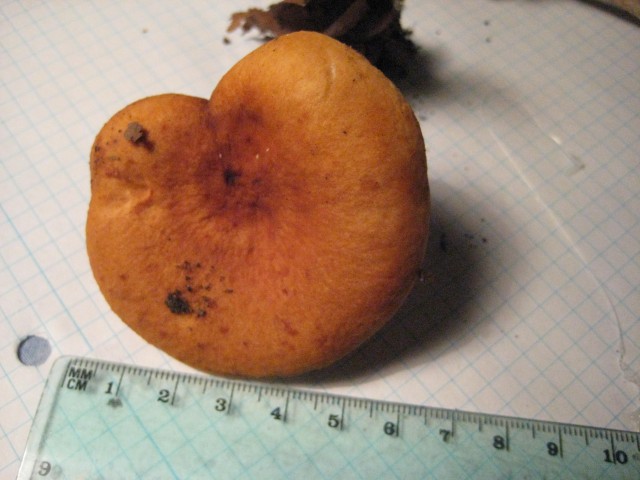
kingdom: Fungi
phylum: Basidiomycota
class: Agaricomycetes
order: Russulales
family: Russulaceae
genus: Lactarius
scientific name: Lactarius fulvissimus
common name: ræve-mælkehat
